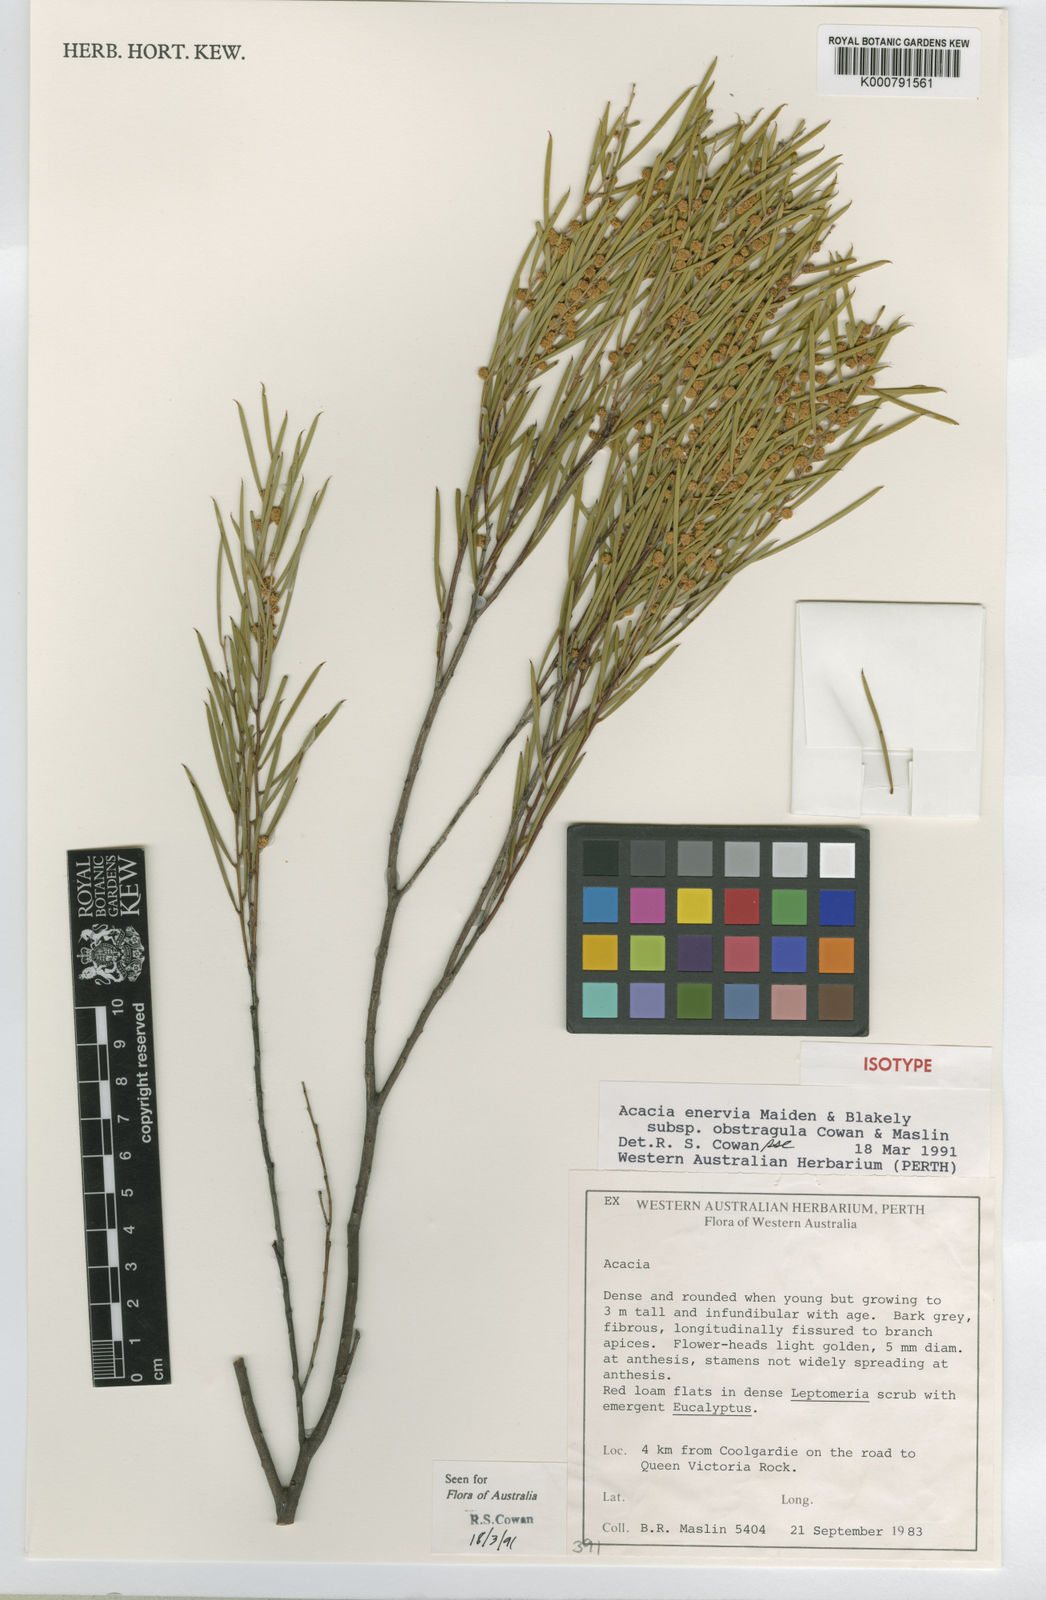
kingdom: Plantae
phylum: Tracheophyta
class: Magnoliopsida
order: Fabales
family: Fabaceae
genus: Acacia
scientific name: Acacia inceana
